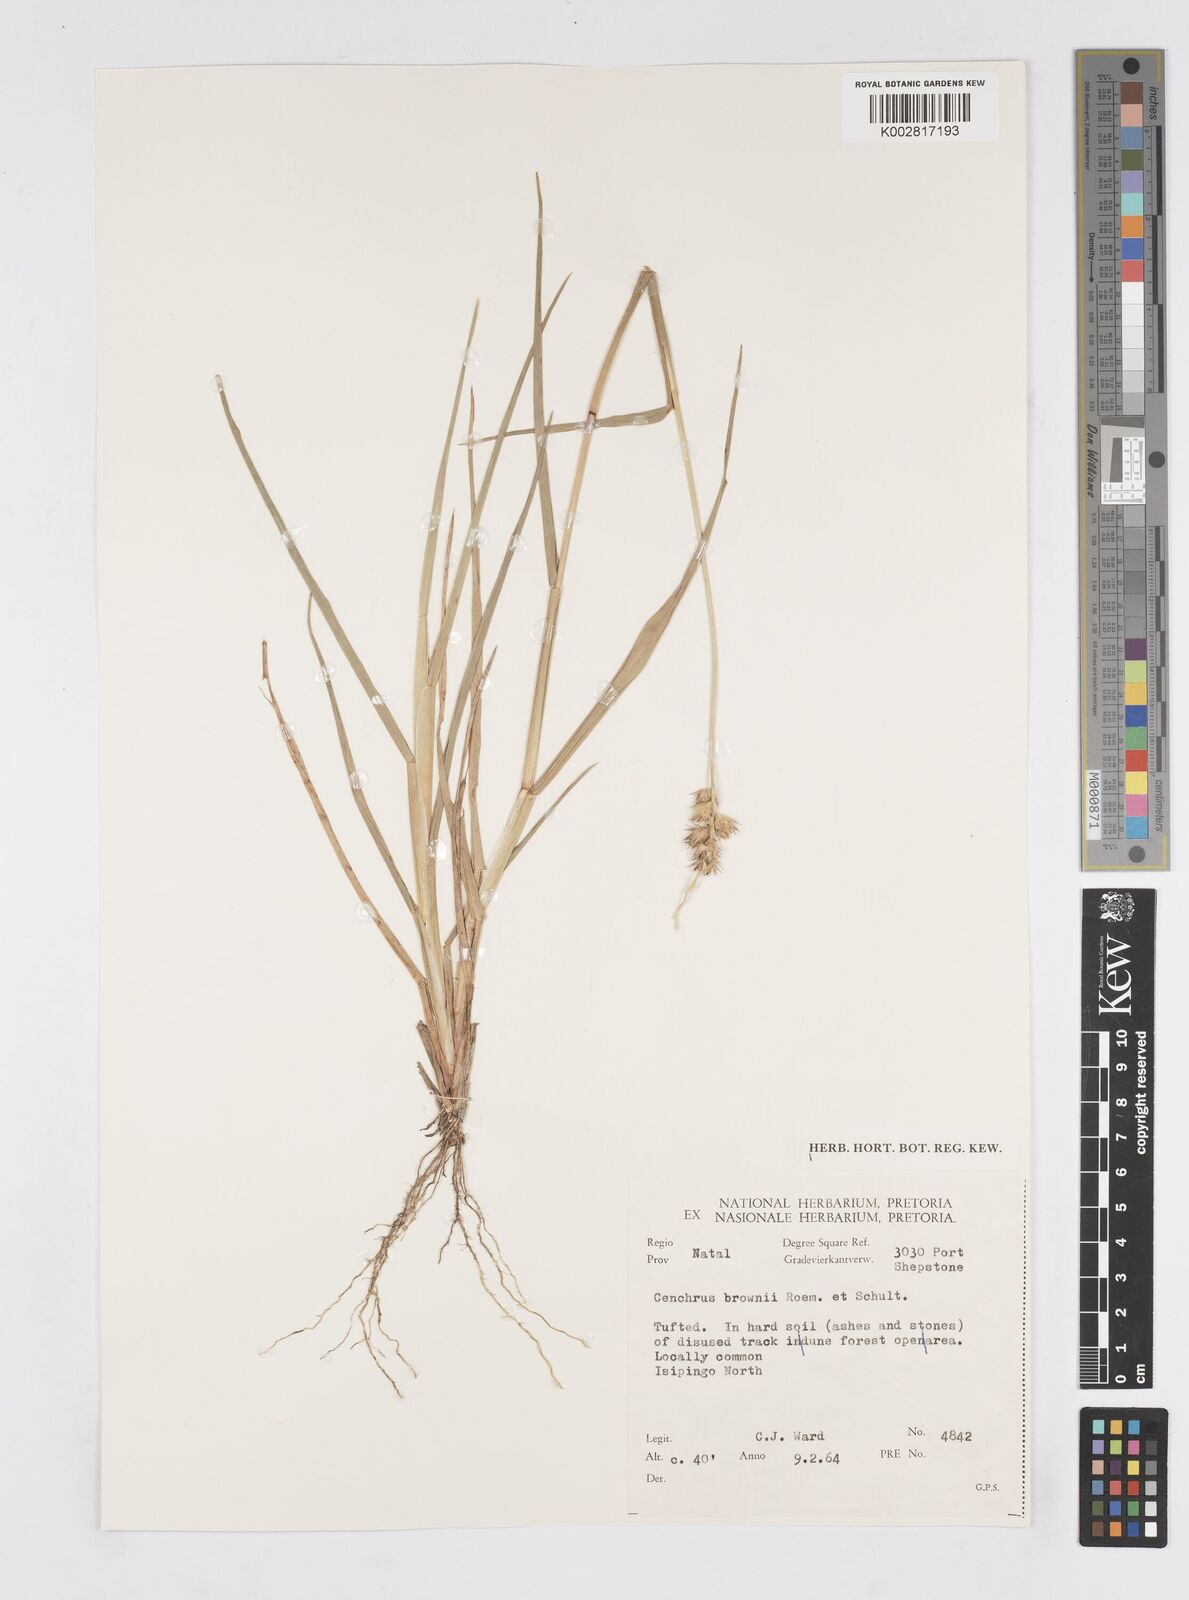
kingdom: Plantae
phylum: Tracheophyta
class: Liliopsida
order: Poales
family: Poaceae
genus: Cenchrus
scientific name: Cenchrus brownii
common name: Slim-bristle sandbur
